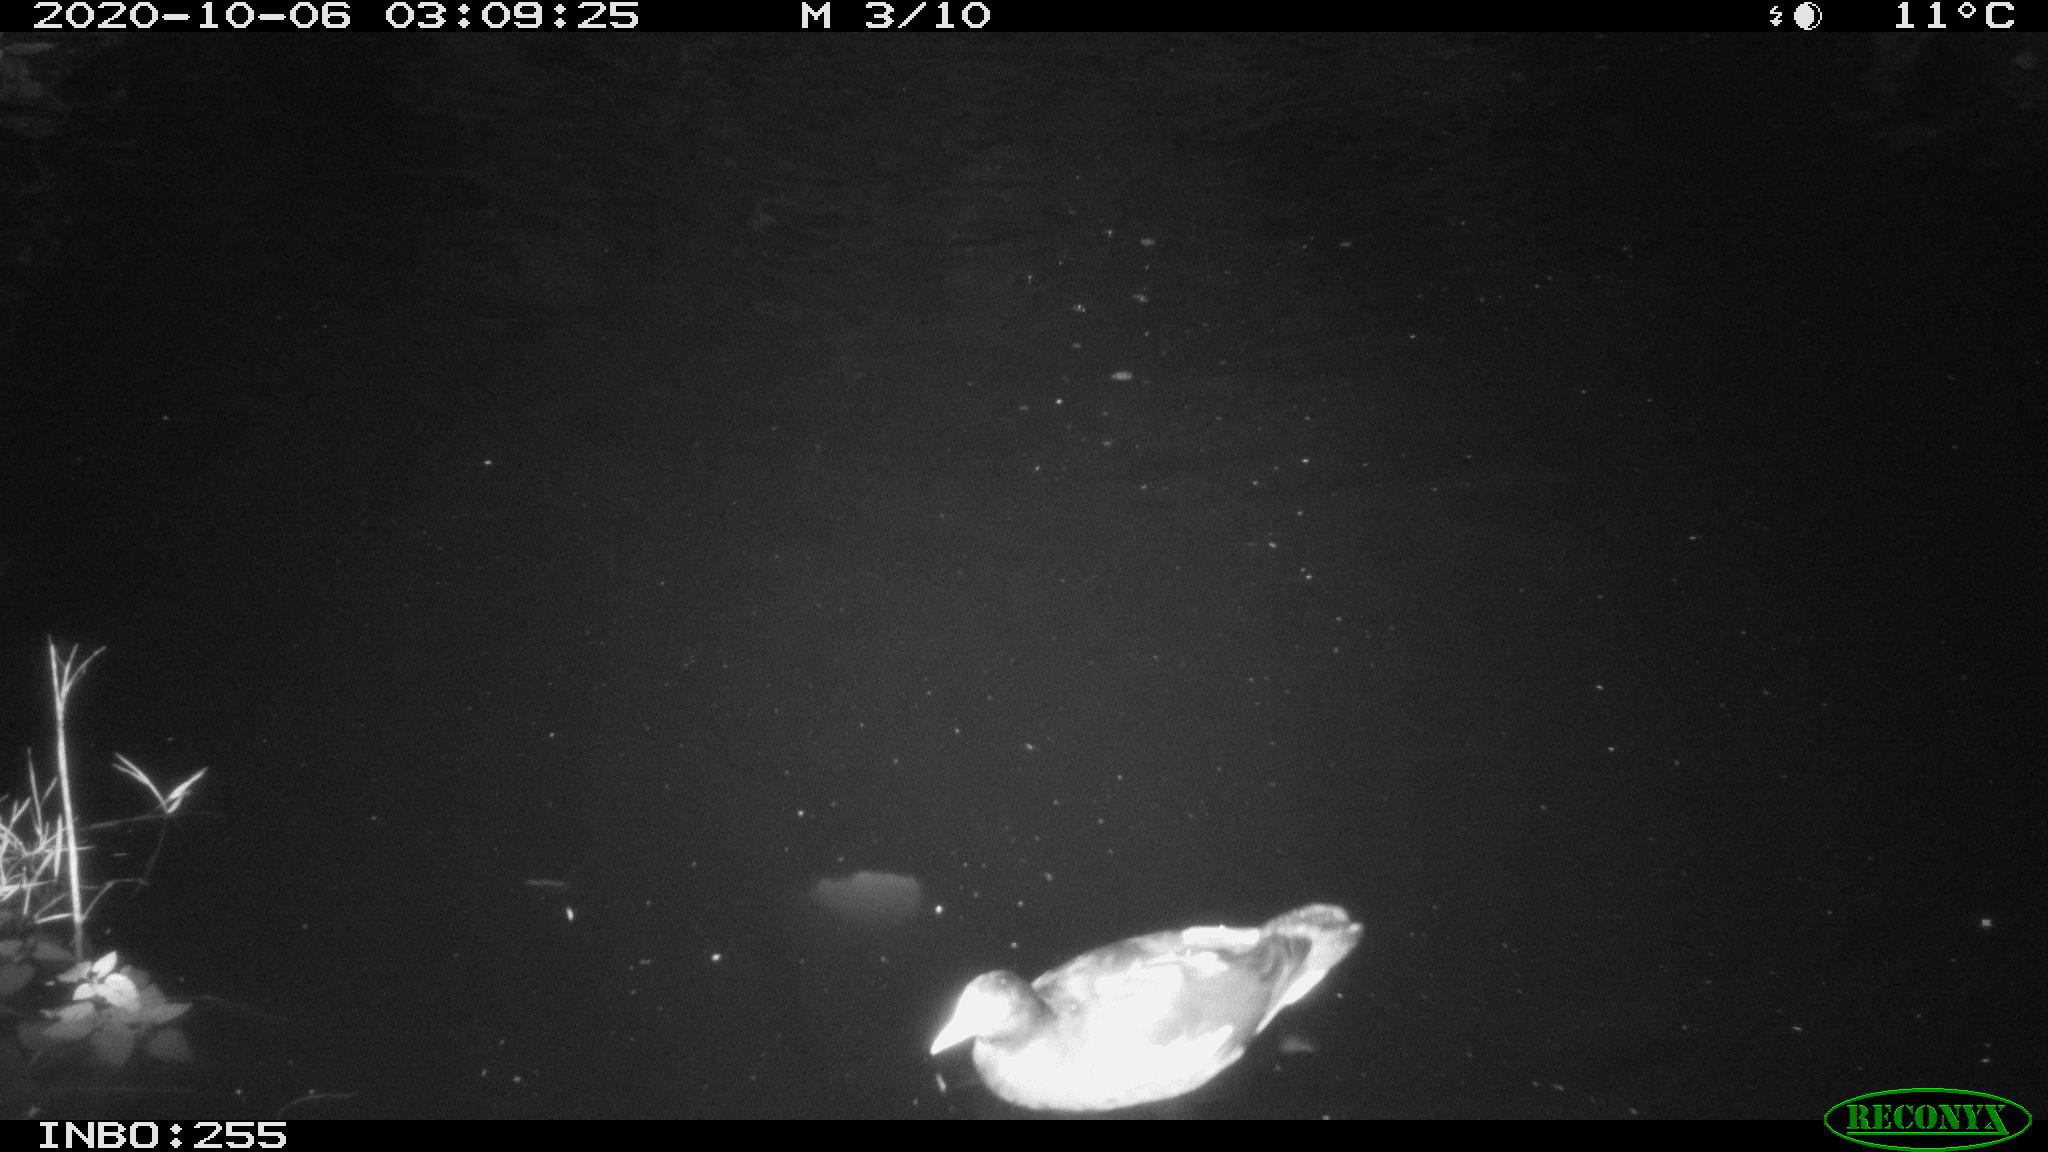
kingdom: Animalia
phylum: Chordata
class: Aves
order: Gruiformes
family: Rallidae
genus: Gallinula
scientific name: Gallinula chloropus
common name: Common moorhen
